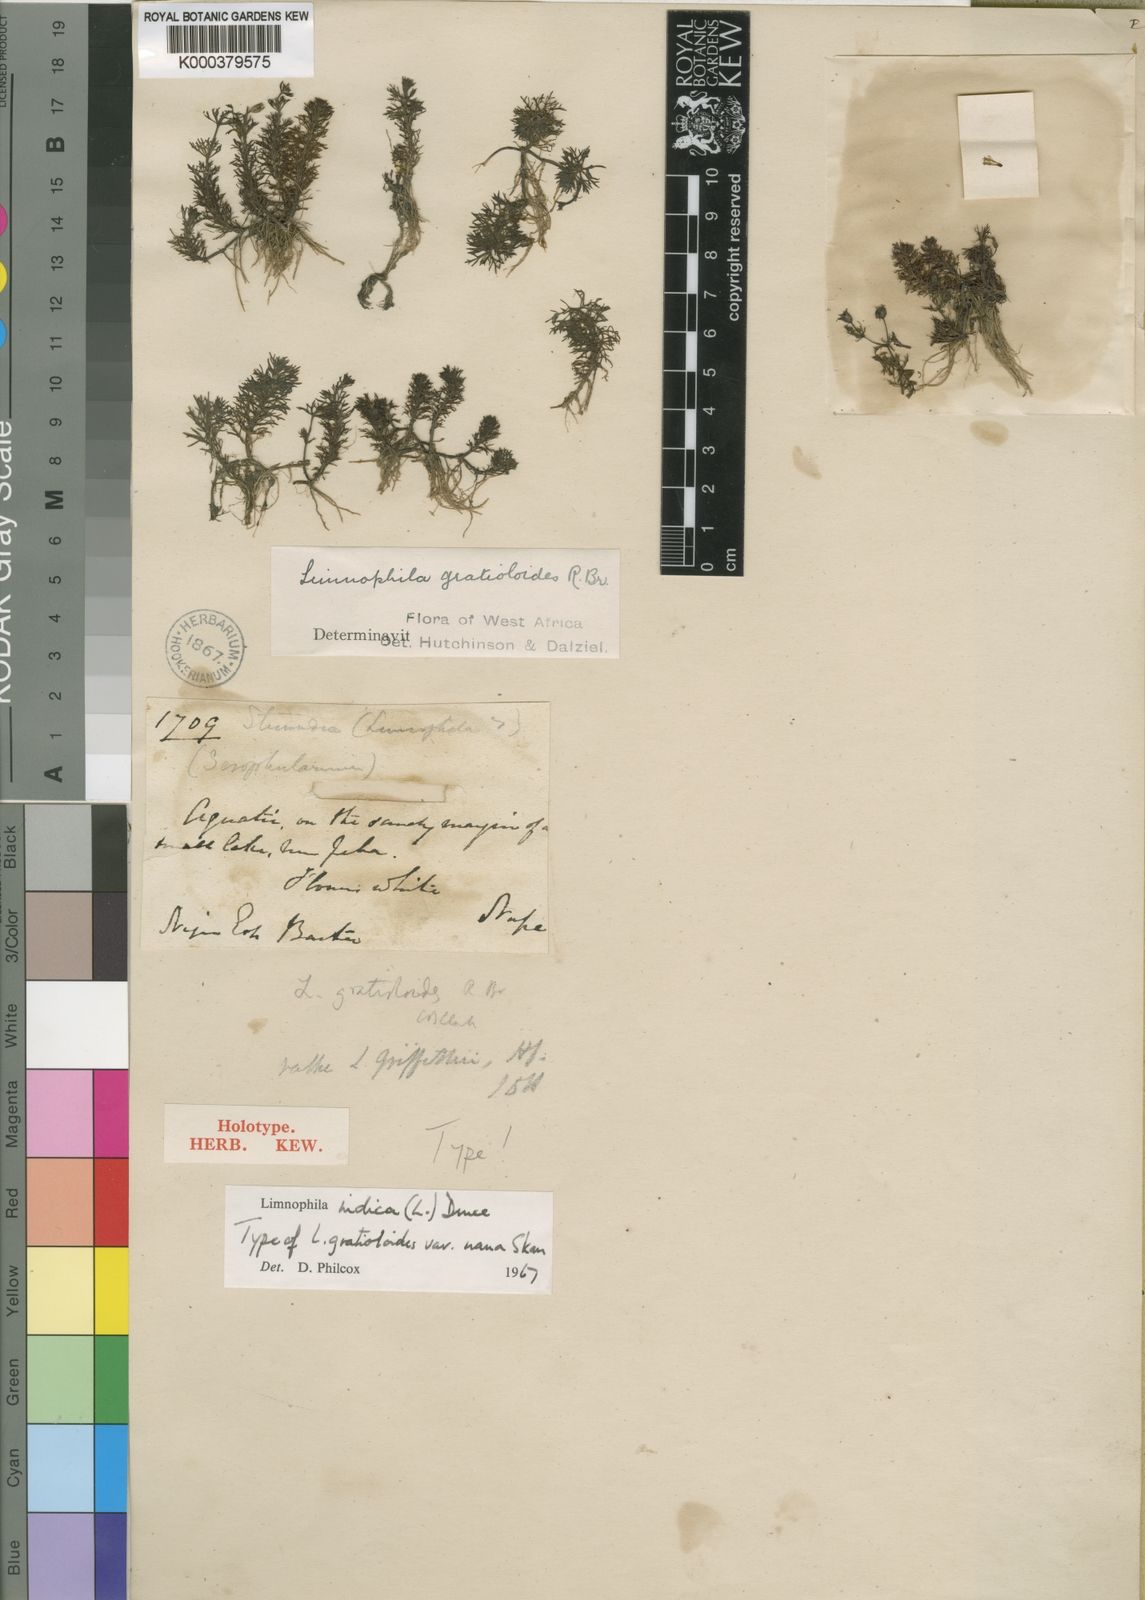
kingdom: Plantae
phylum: Tracheophyta
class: Magnoliopsida
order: Lamiales
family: Plantaginaceae
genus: Limnophila
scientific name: Limnophila indica
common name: Indian marshweed
